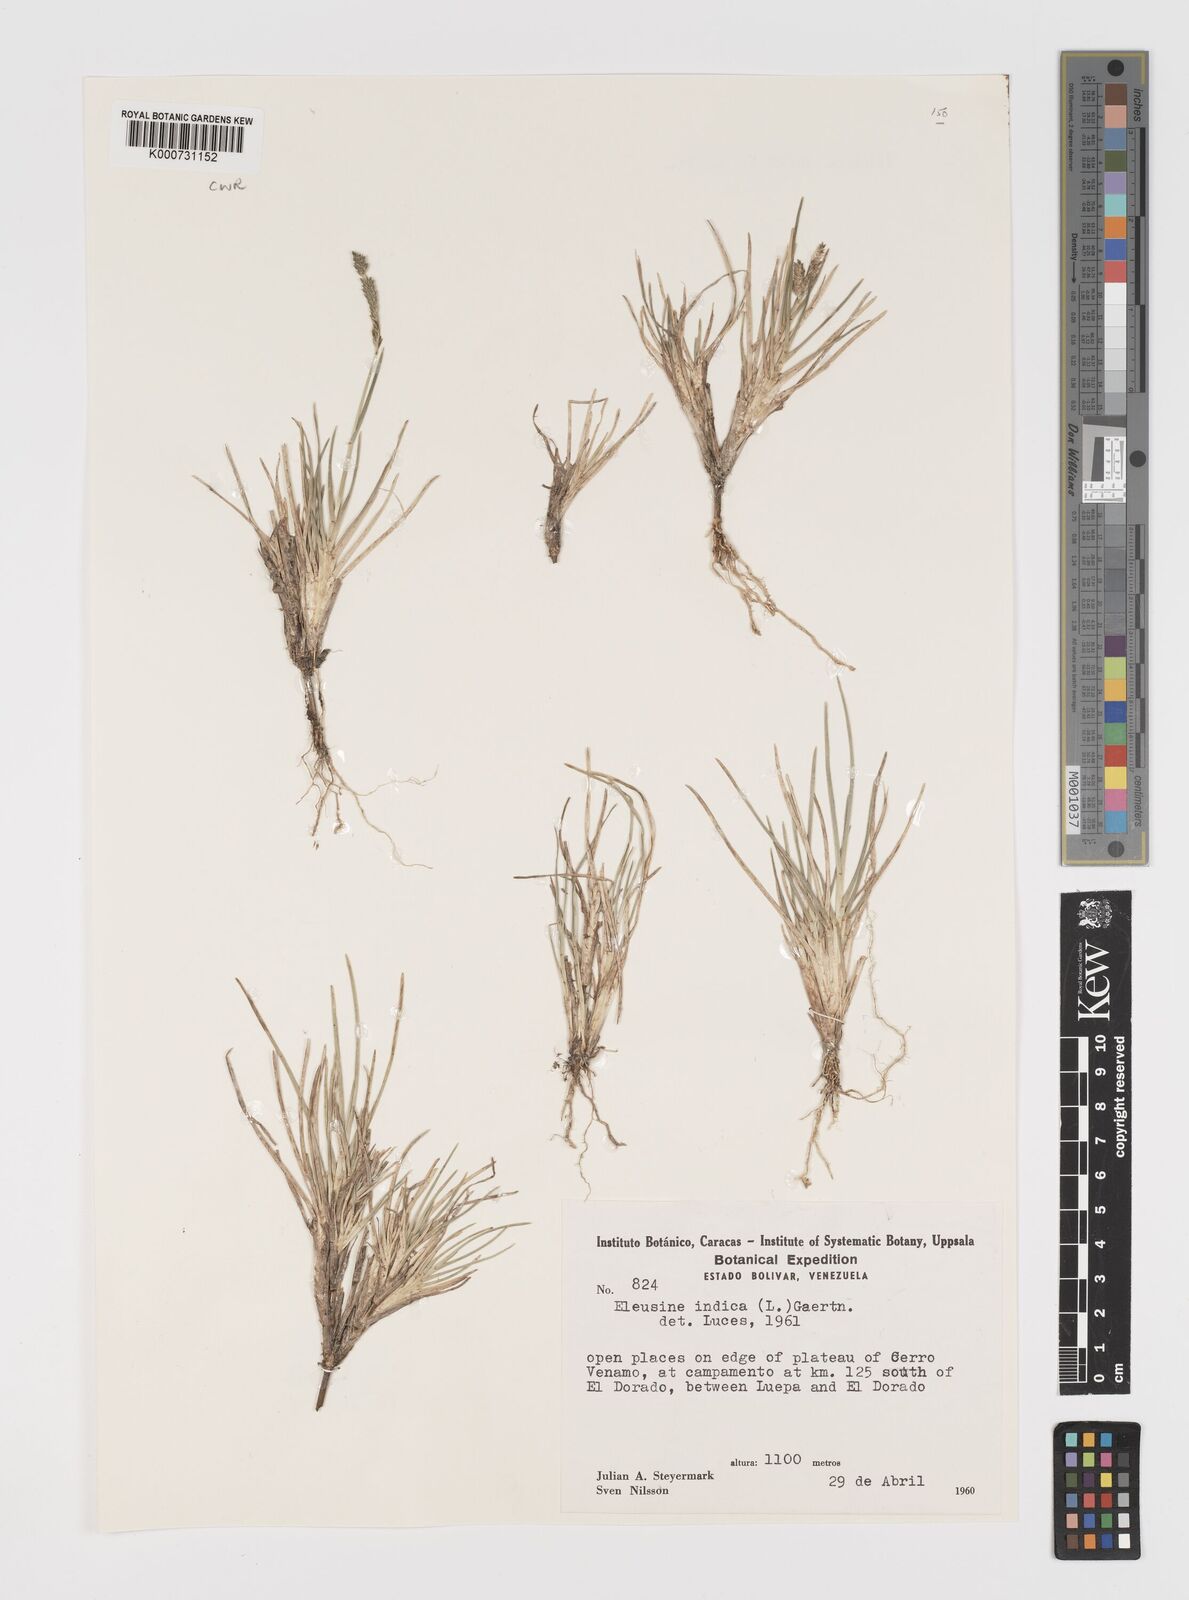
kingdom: Plantae
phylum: Tracheophyta
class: Liliopsida
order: Poales
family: Poaceae
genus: Eleusine
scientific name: Eleusine indica
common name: Yard-grass
